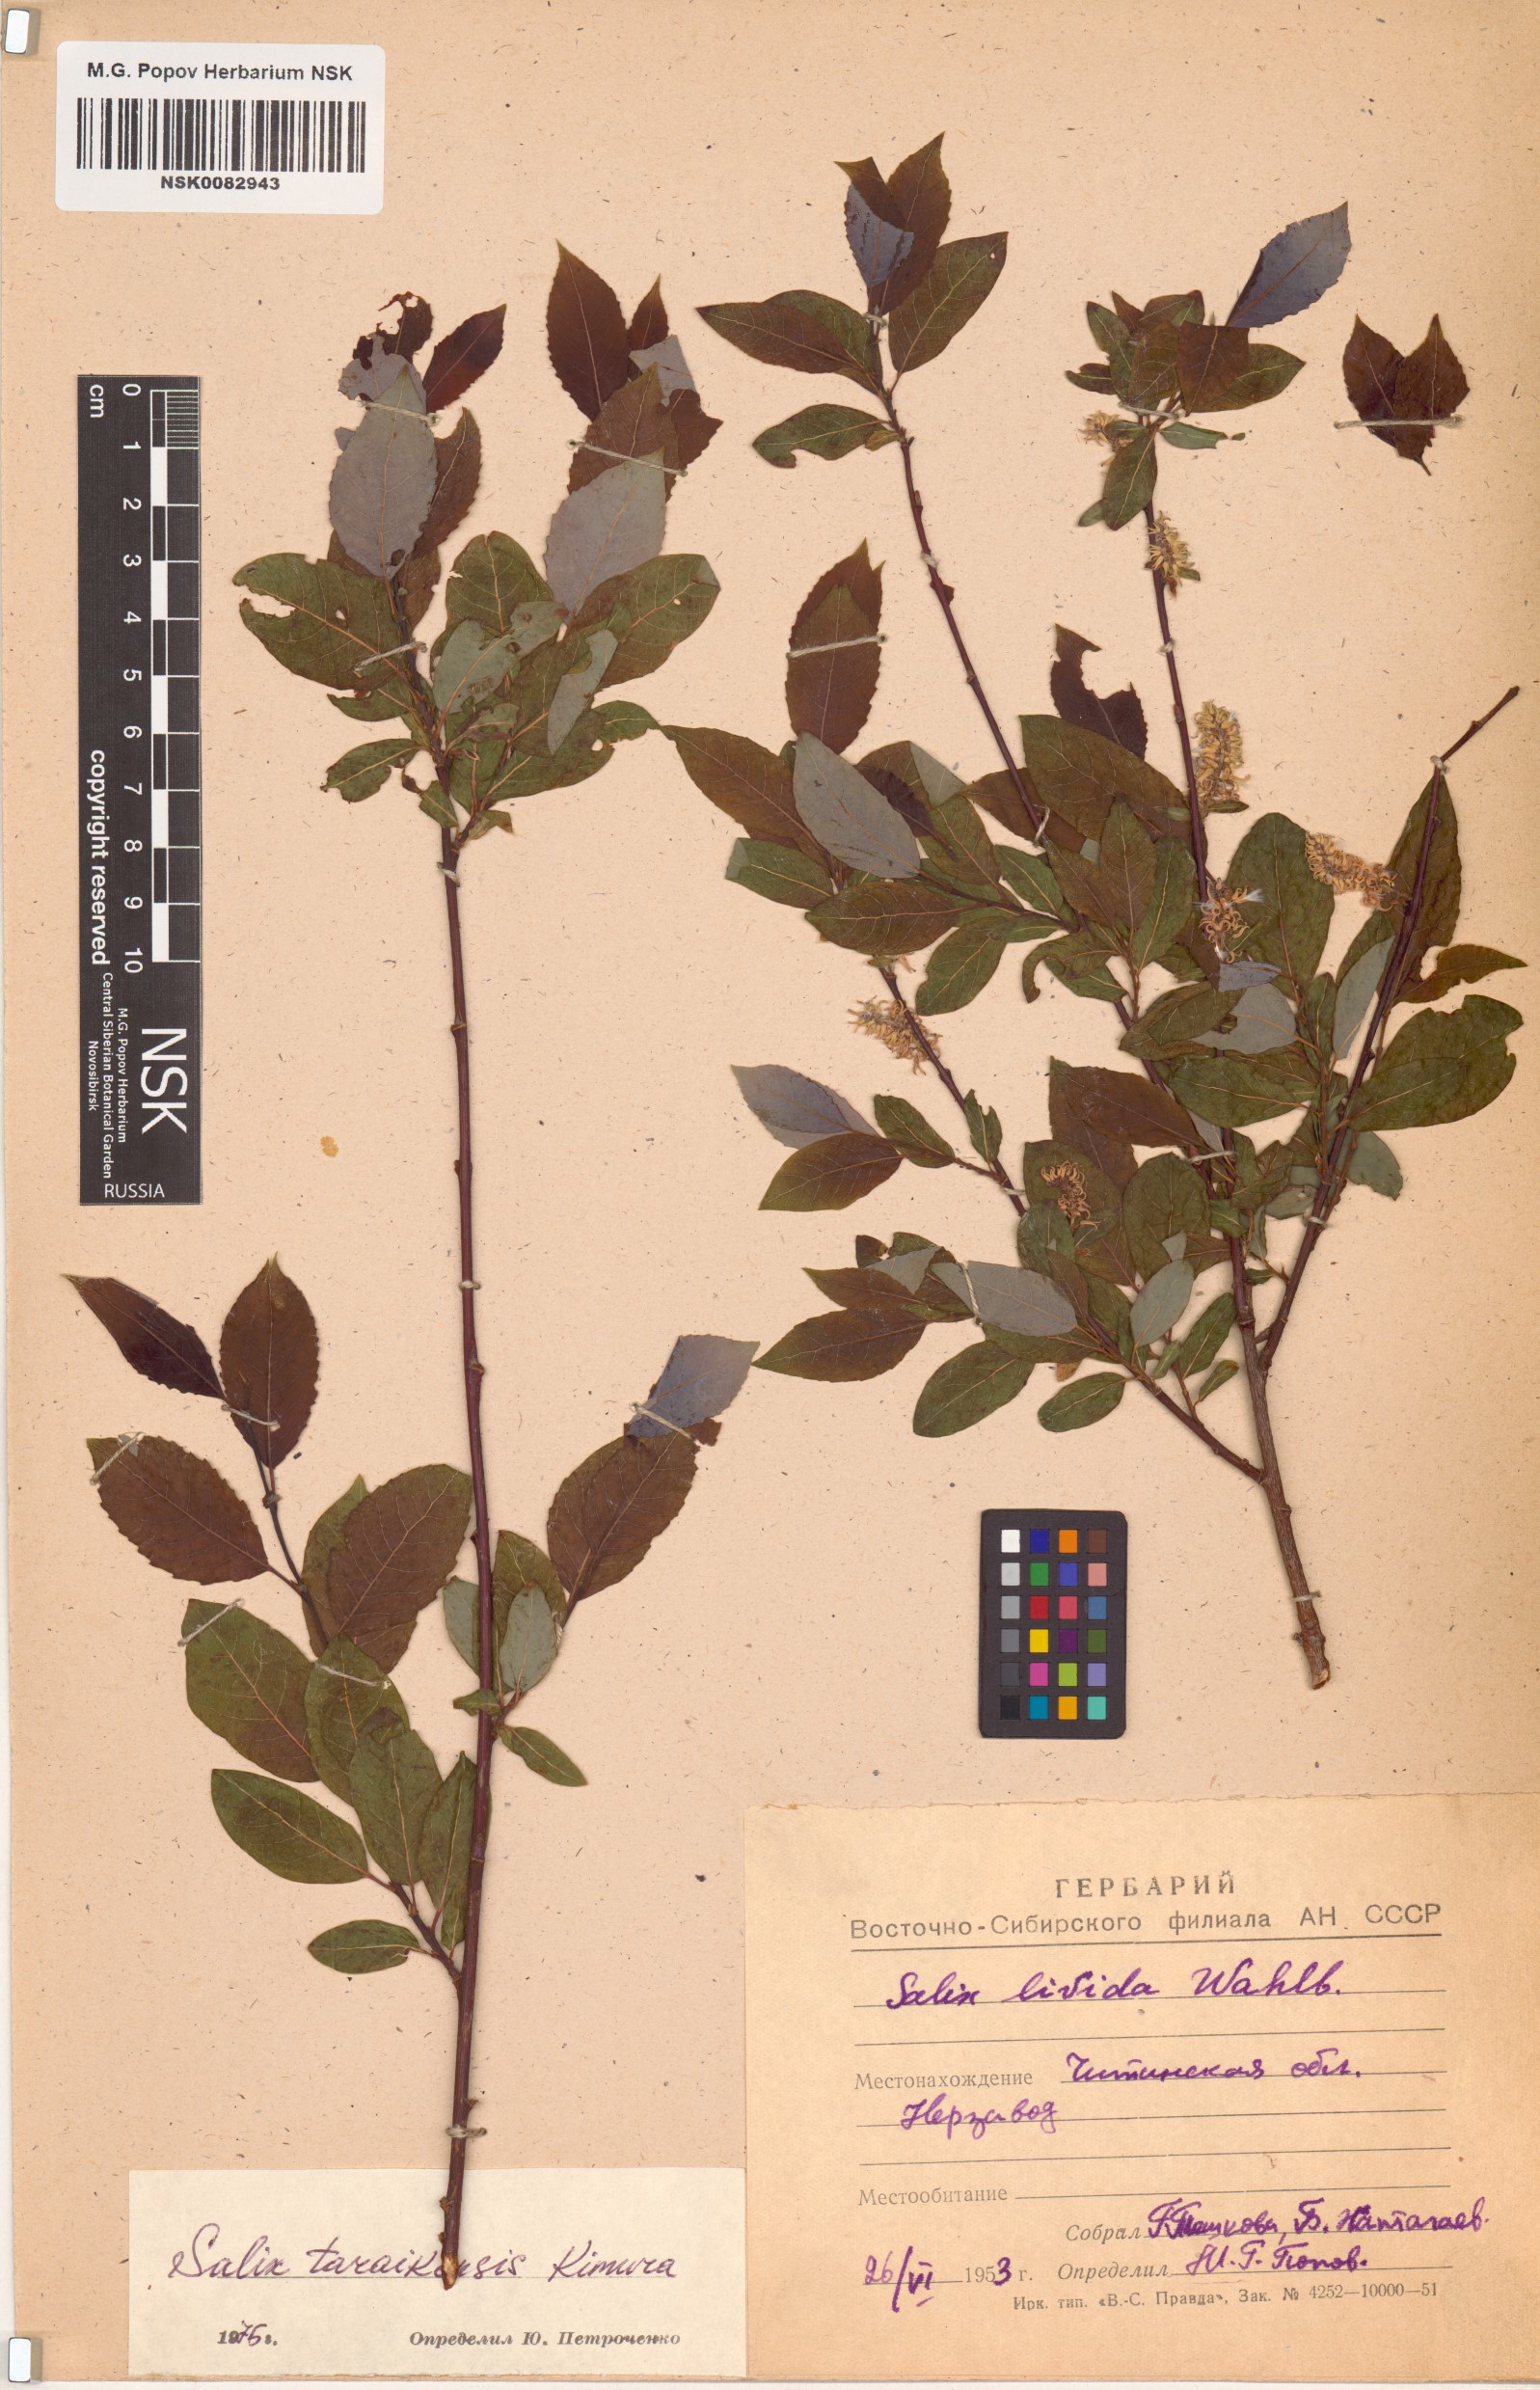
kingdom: Plantae
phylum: Tracheophyta
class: Magnoliopsida
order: Malpighiales
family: Salicaceae
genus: Salix
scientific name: Salix taraikensis
